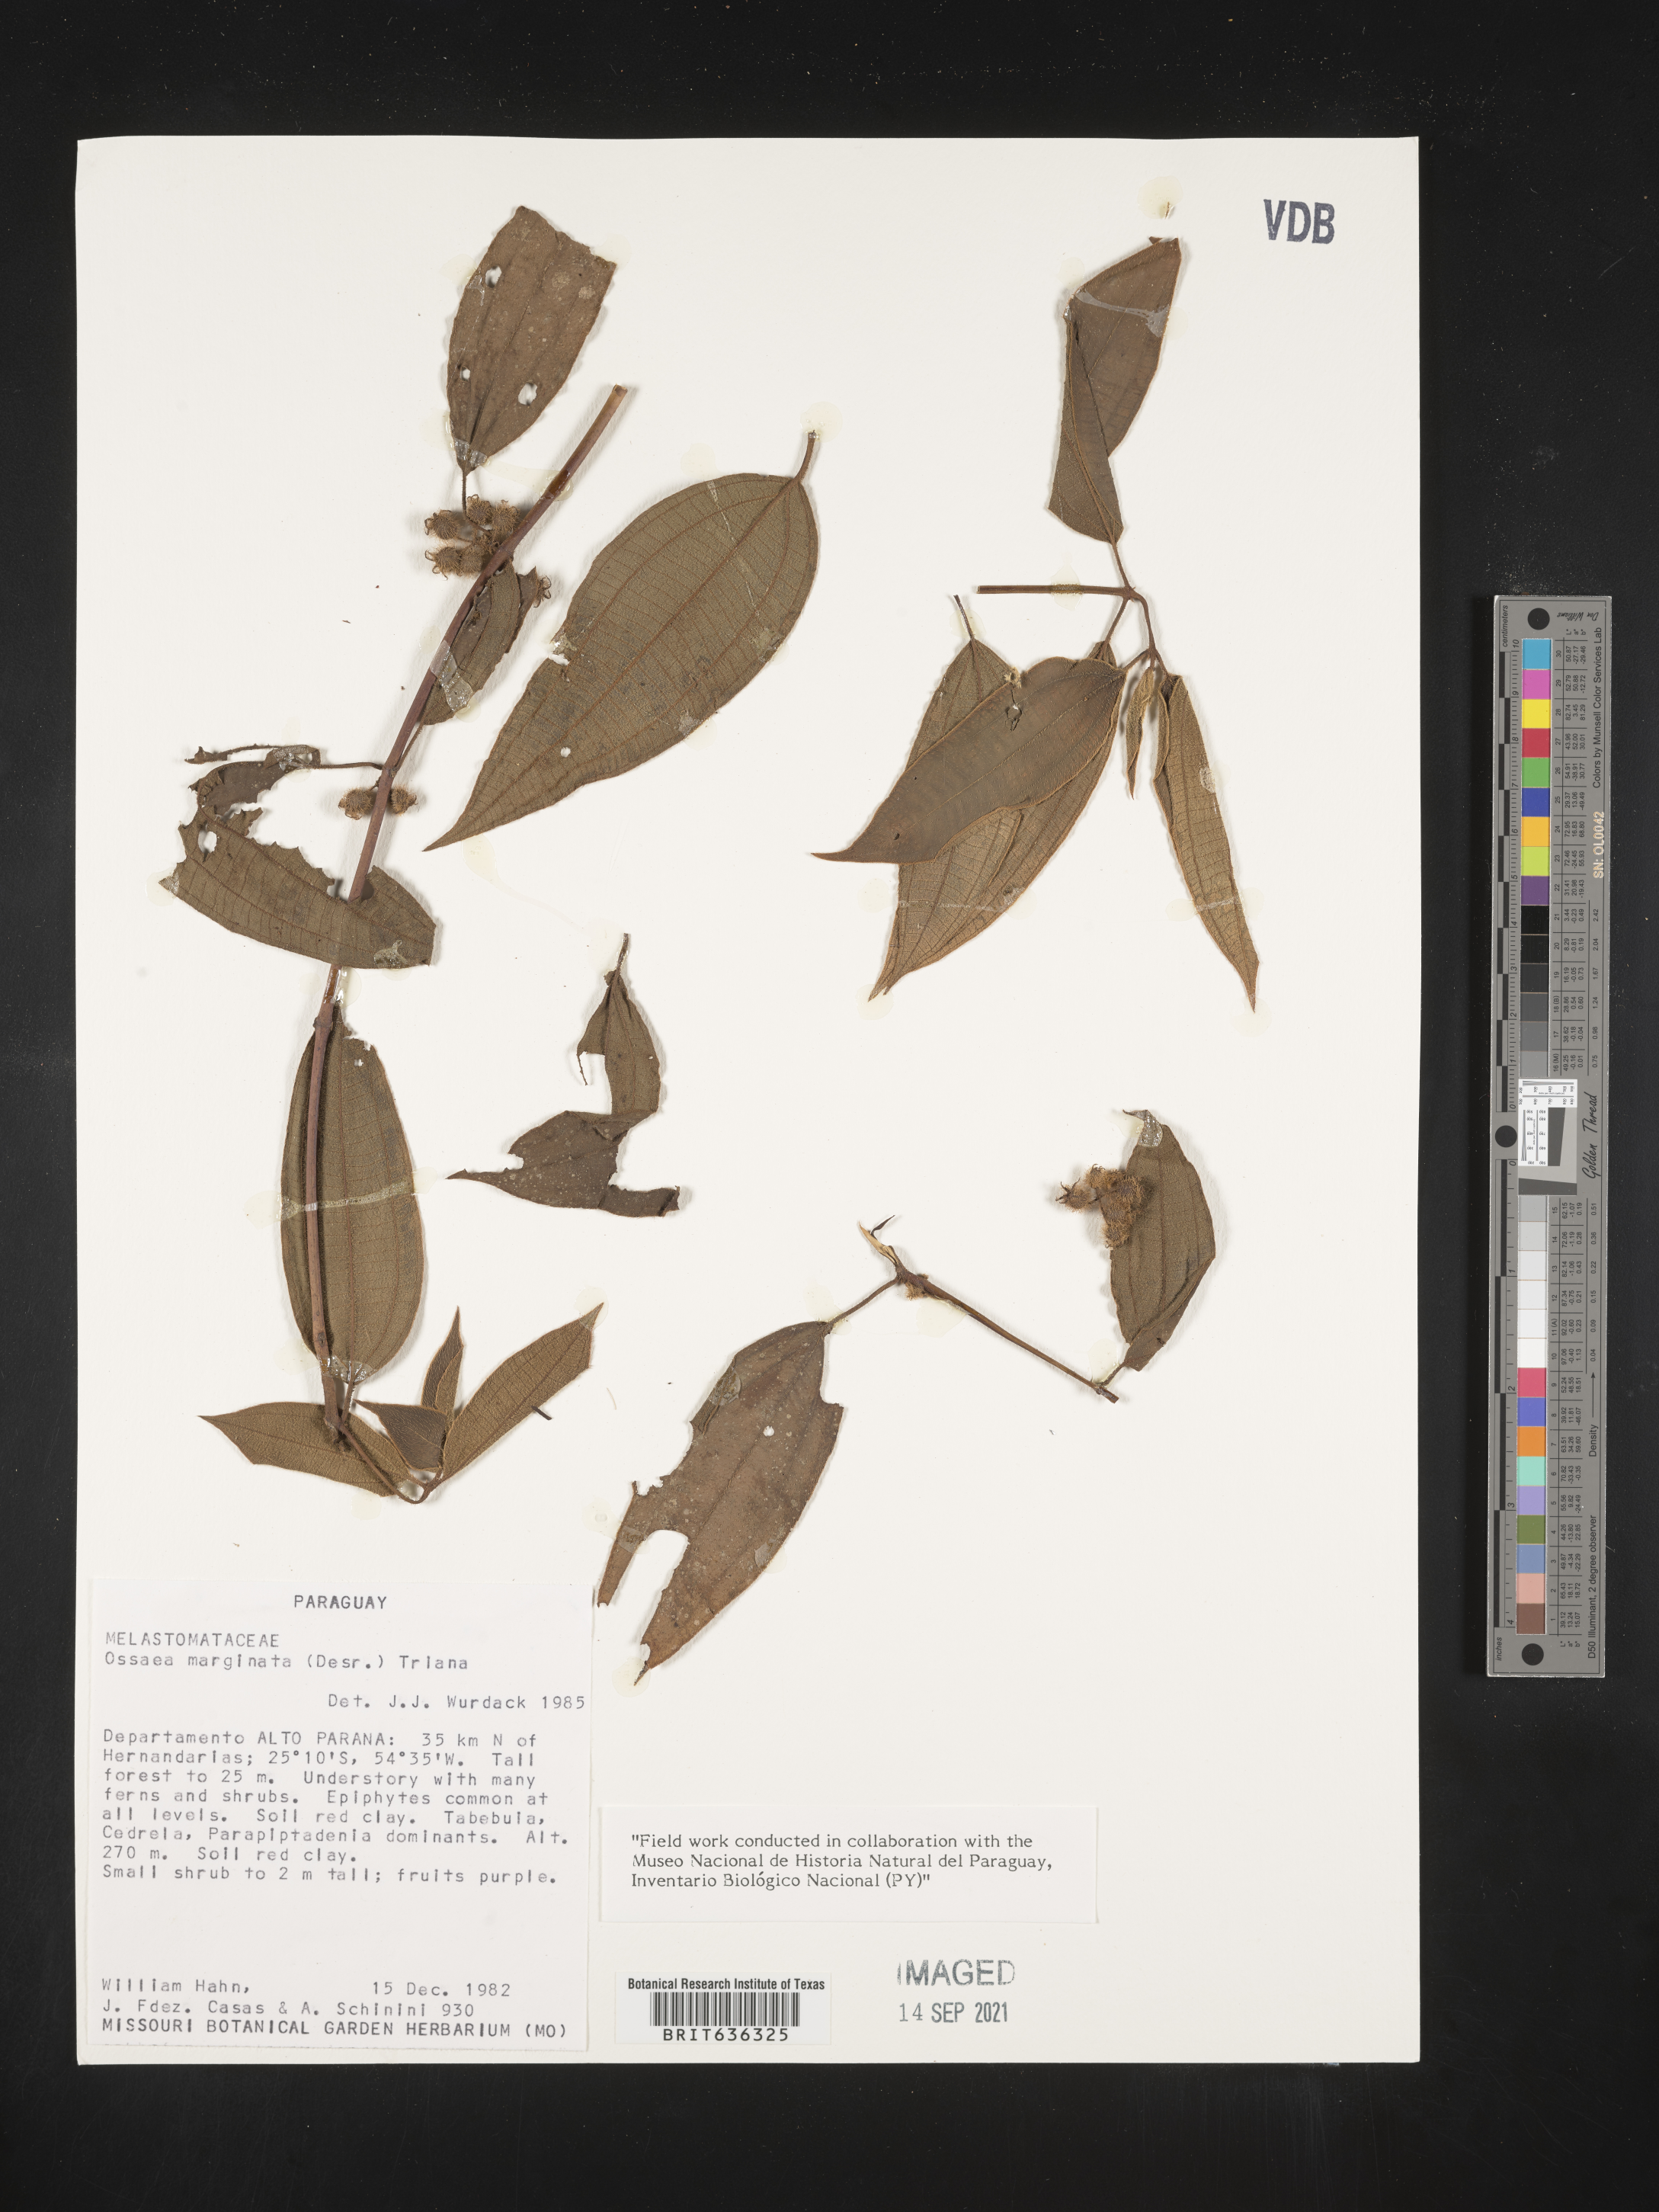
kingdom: Plantae
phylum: Tracheophyta
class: Magnoliopsida
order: Myrtales
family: Melastomataceae
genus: Ossaea
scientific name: Ossaea
